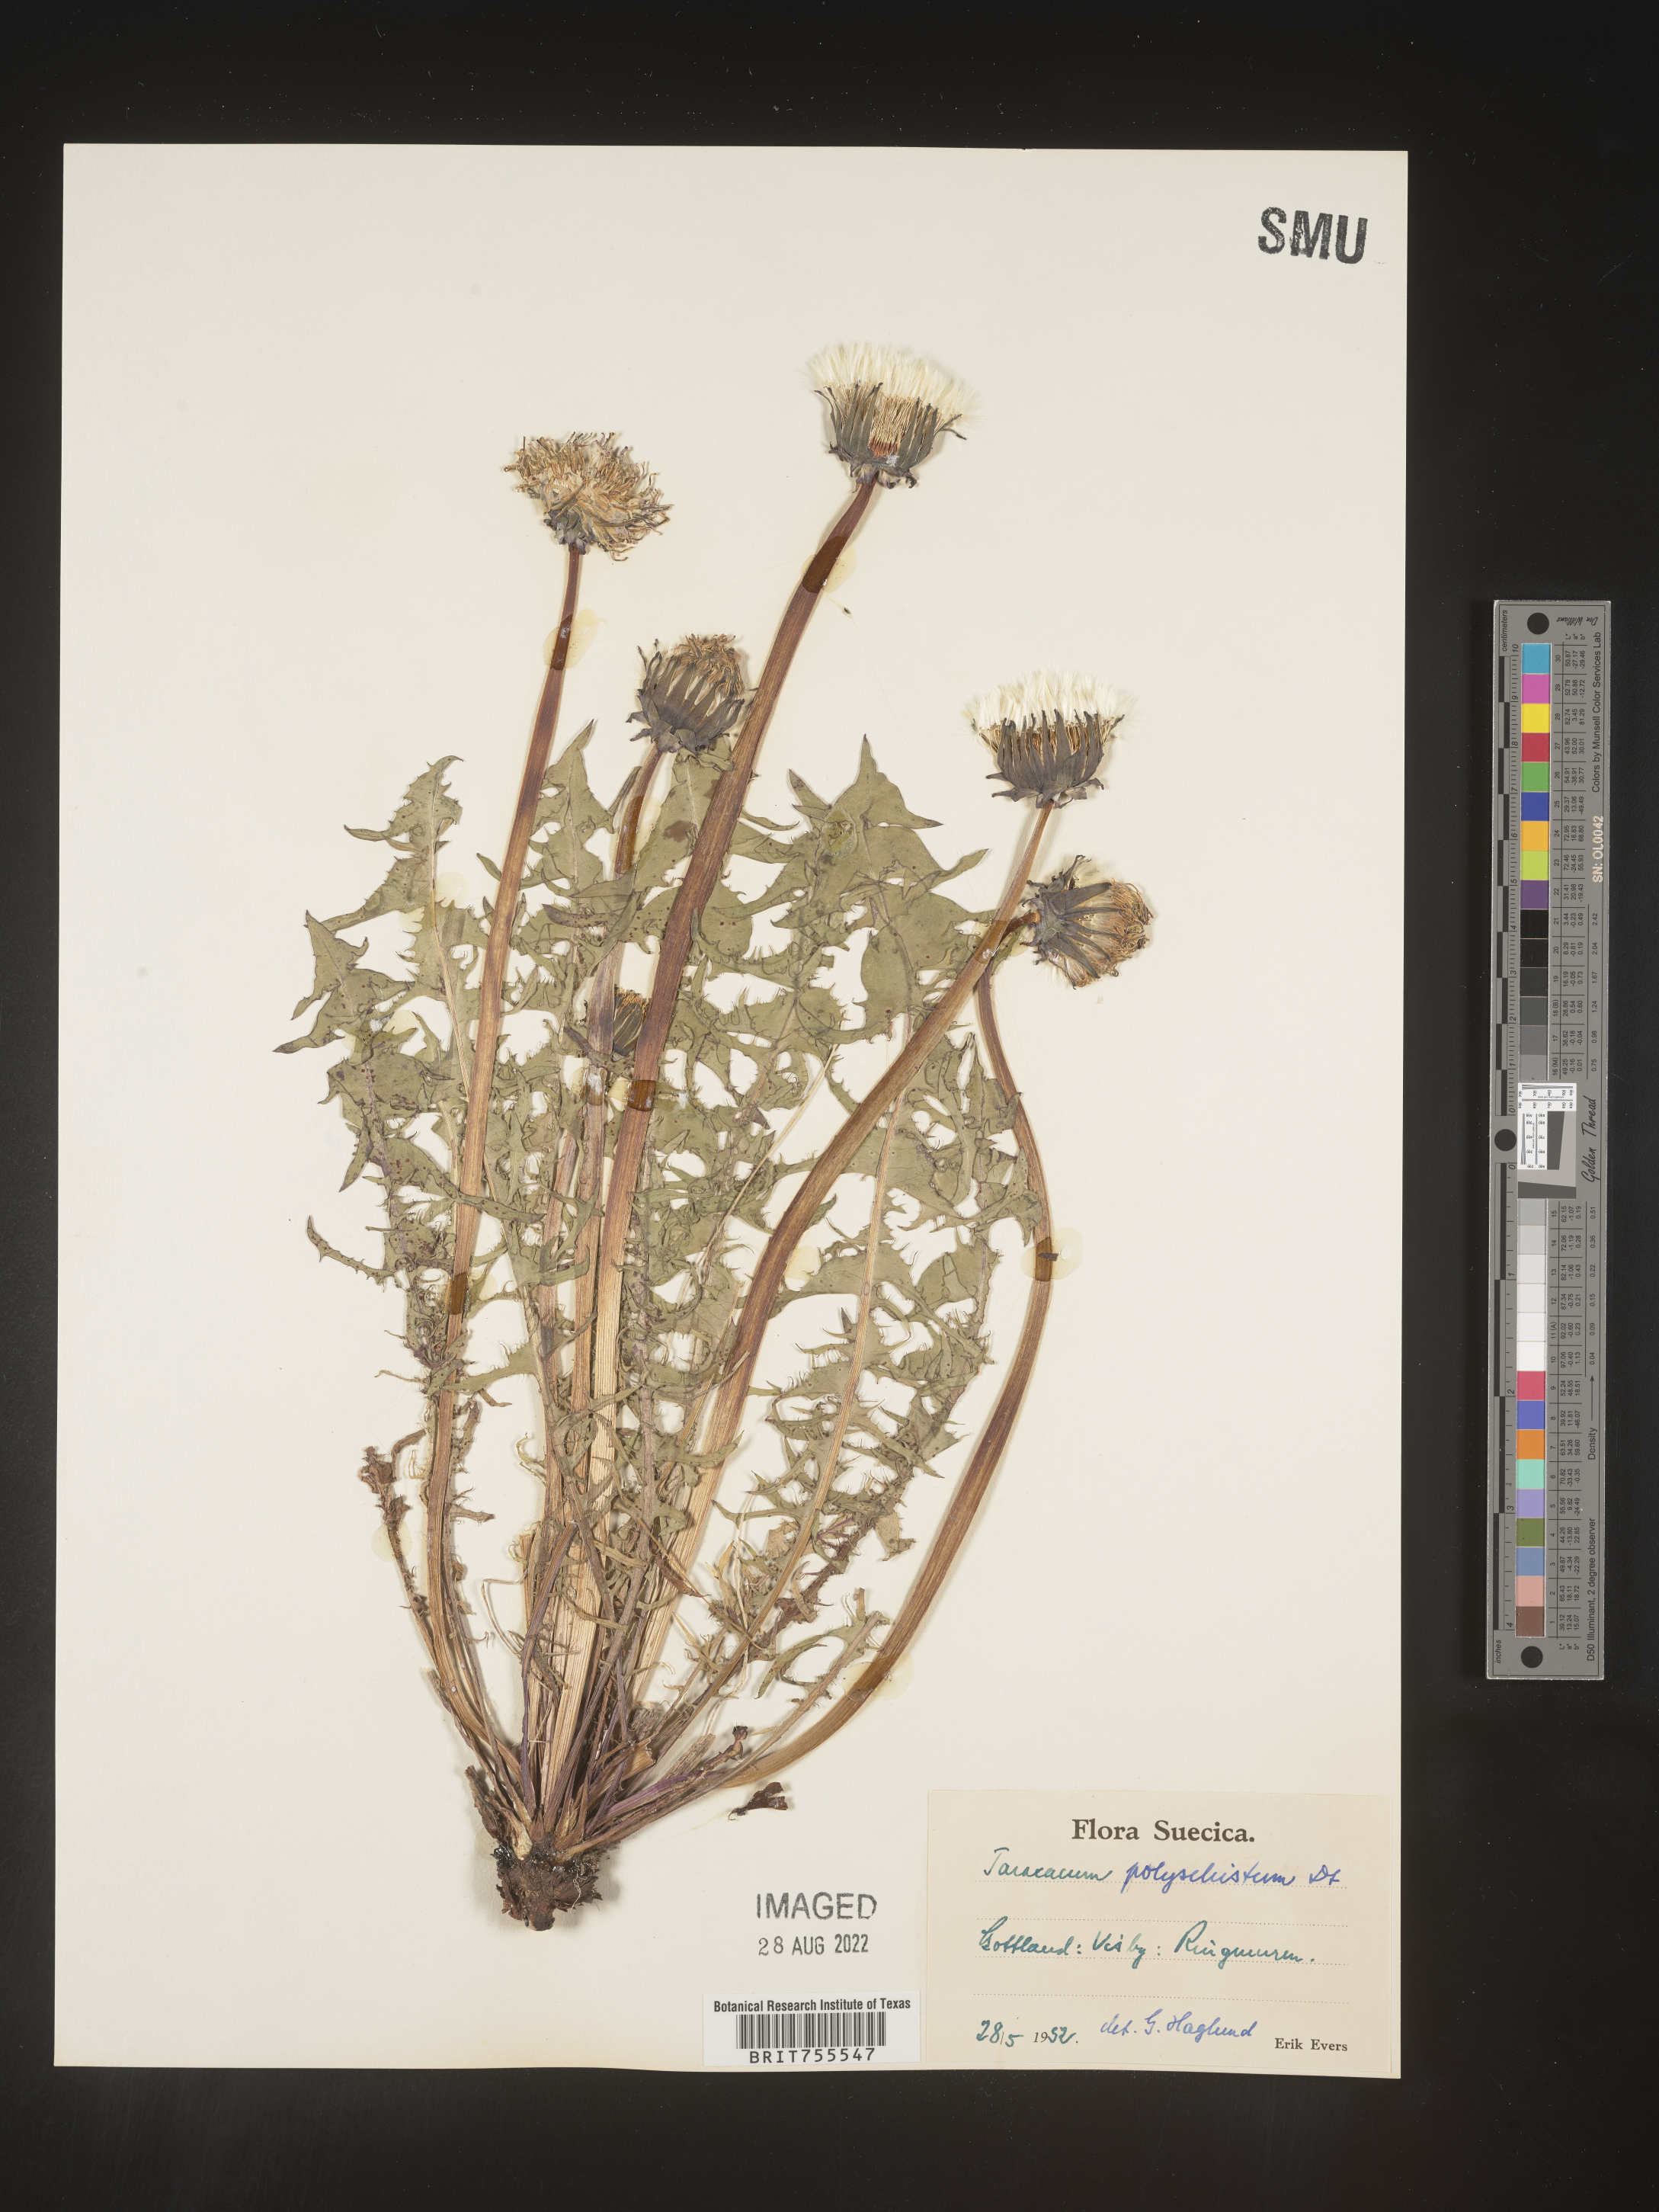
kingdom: Plantae
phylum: Tracheophyta
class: Magnoliopsida
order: Asterales
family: Asteraceae
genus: Taraxacum
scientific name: Taraxacum
